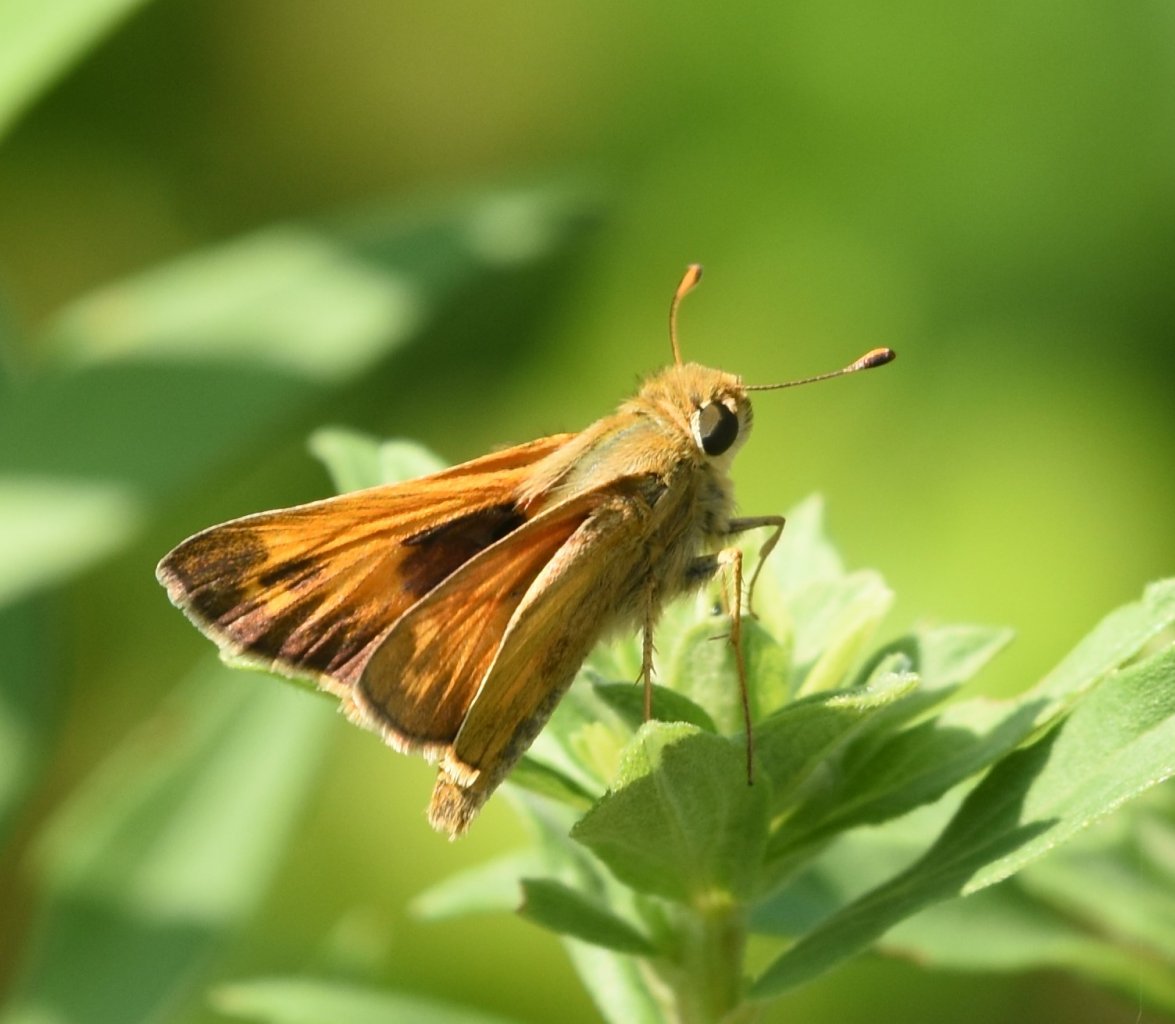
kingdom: Animalia
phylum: Arthropoda
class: Insecta
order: Lepidoptera
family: Hesperiidae
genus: Atalopedes
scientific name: Atalopedes campestris
